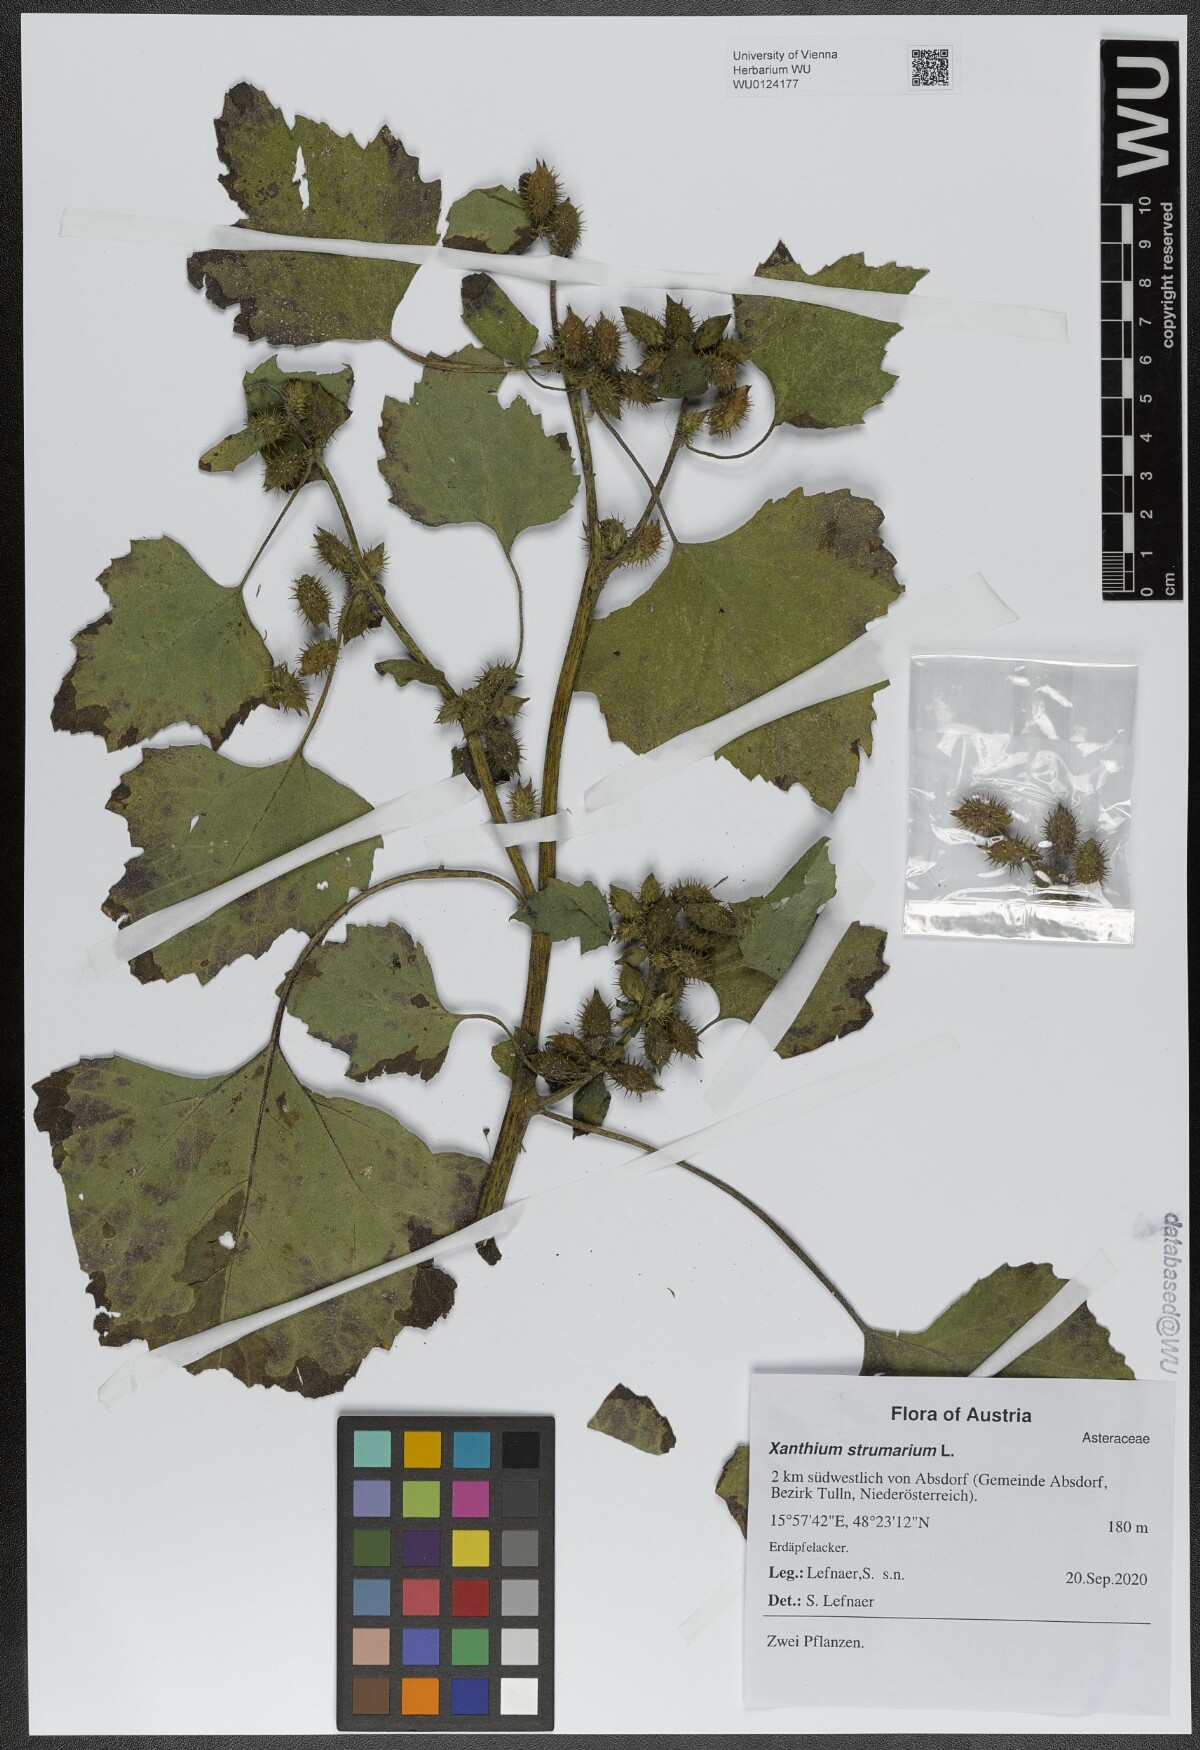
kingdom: Plantae
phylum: Tracheophyta
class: Magnoliopsida
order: Asterales
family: Asteraceae
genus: Xanthium
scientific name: Xanthium strumarium
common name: Rough cocklebur
